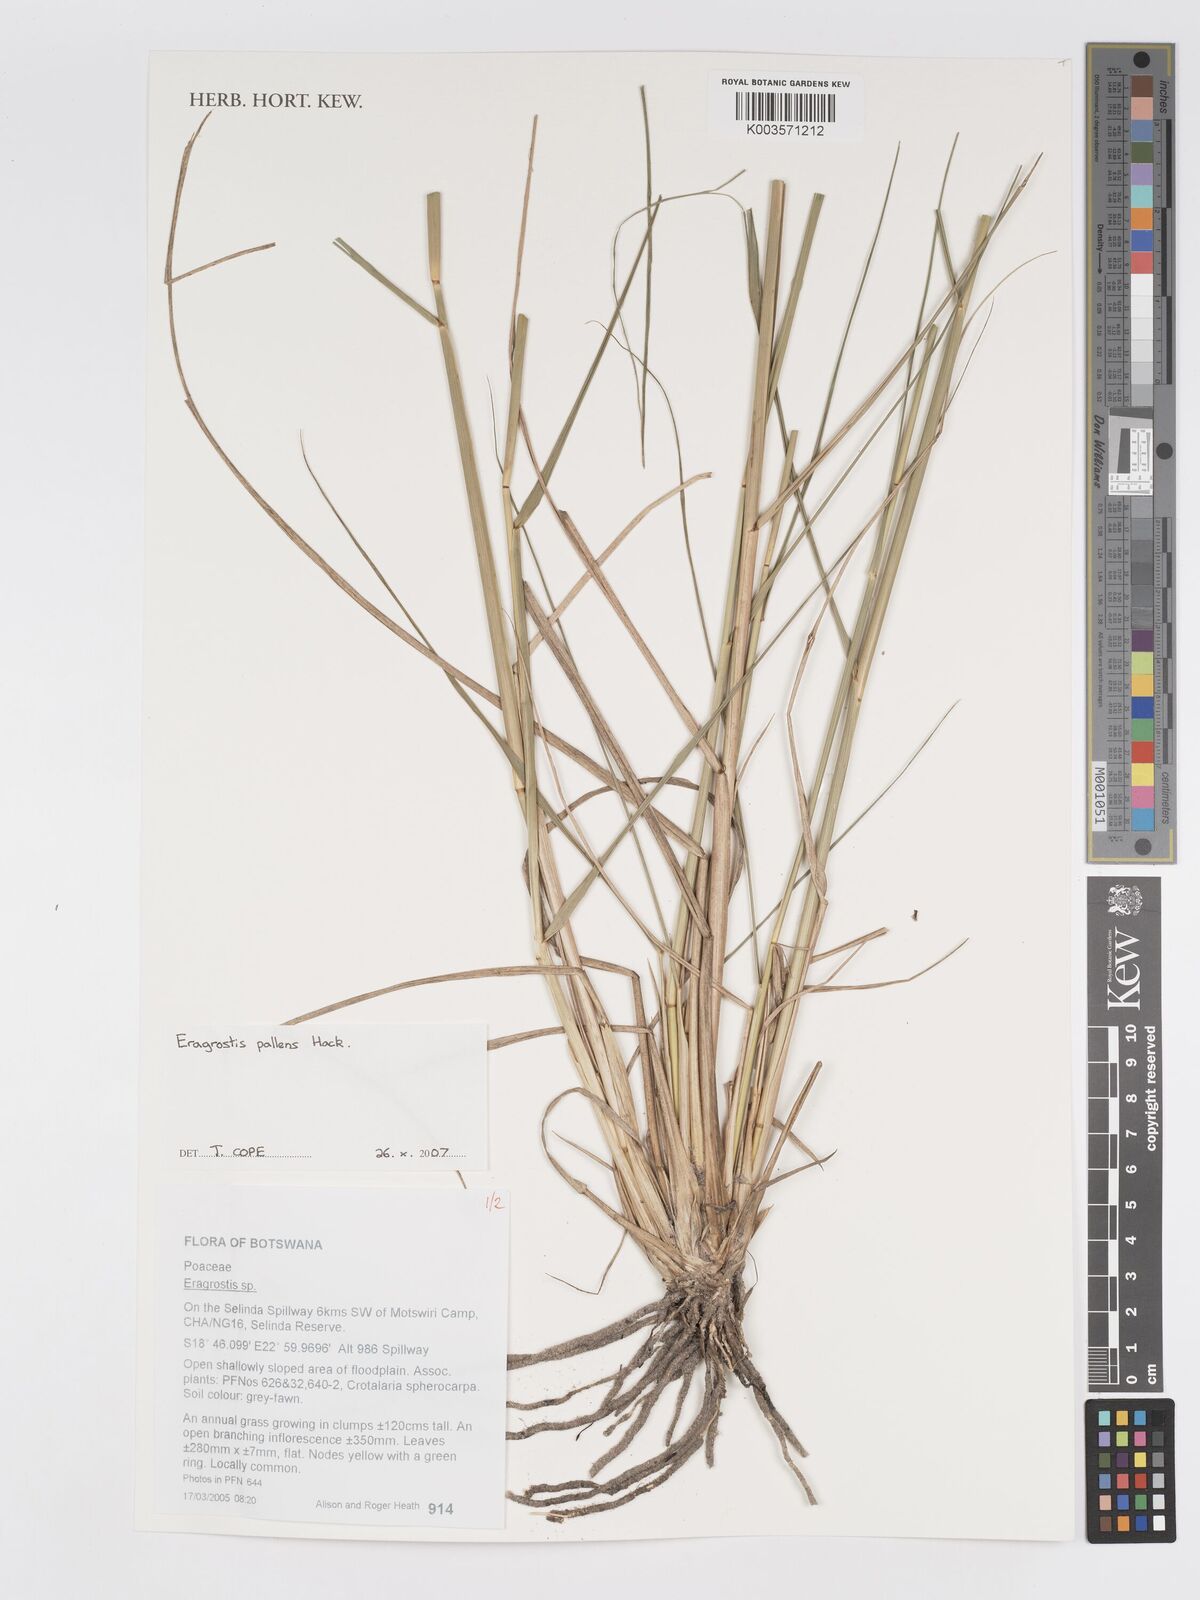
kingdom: Plantae
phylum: Tracheophyta
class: Liliopsida
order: Poales
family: Poaceae
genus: Eragrostis
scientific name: Eragrostis pallens
